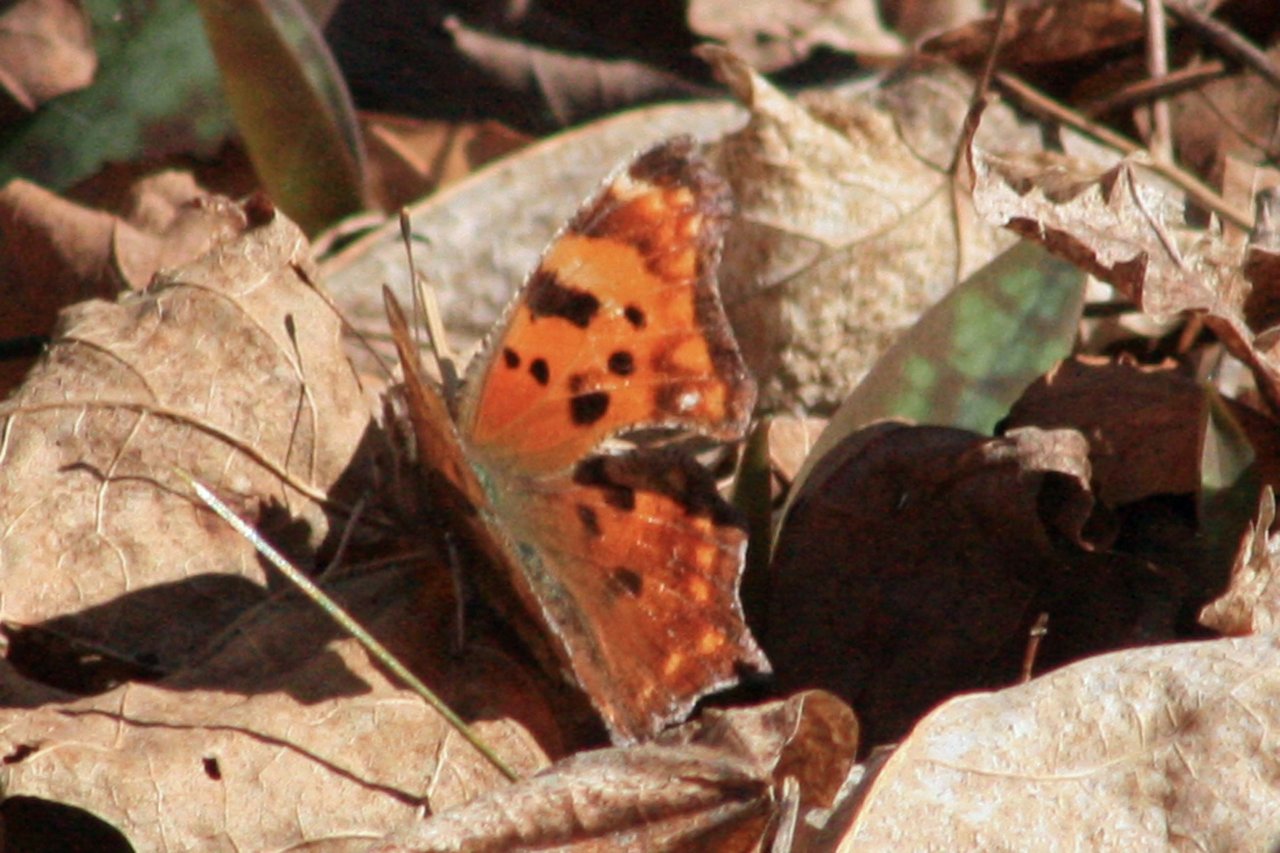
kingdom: Animalia
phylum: Arthropoda
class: Insecta
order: Lepidoptera
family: Nymphalidae
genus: Polygonia
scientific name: Polygonia comma
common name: Eastern Comma
